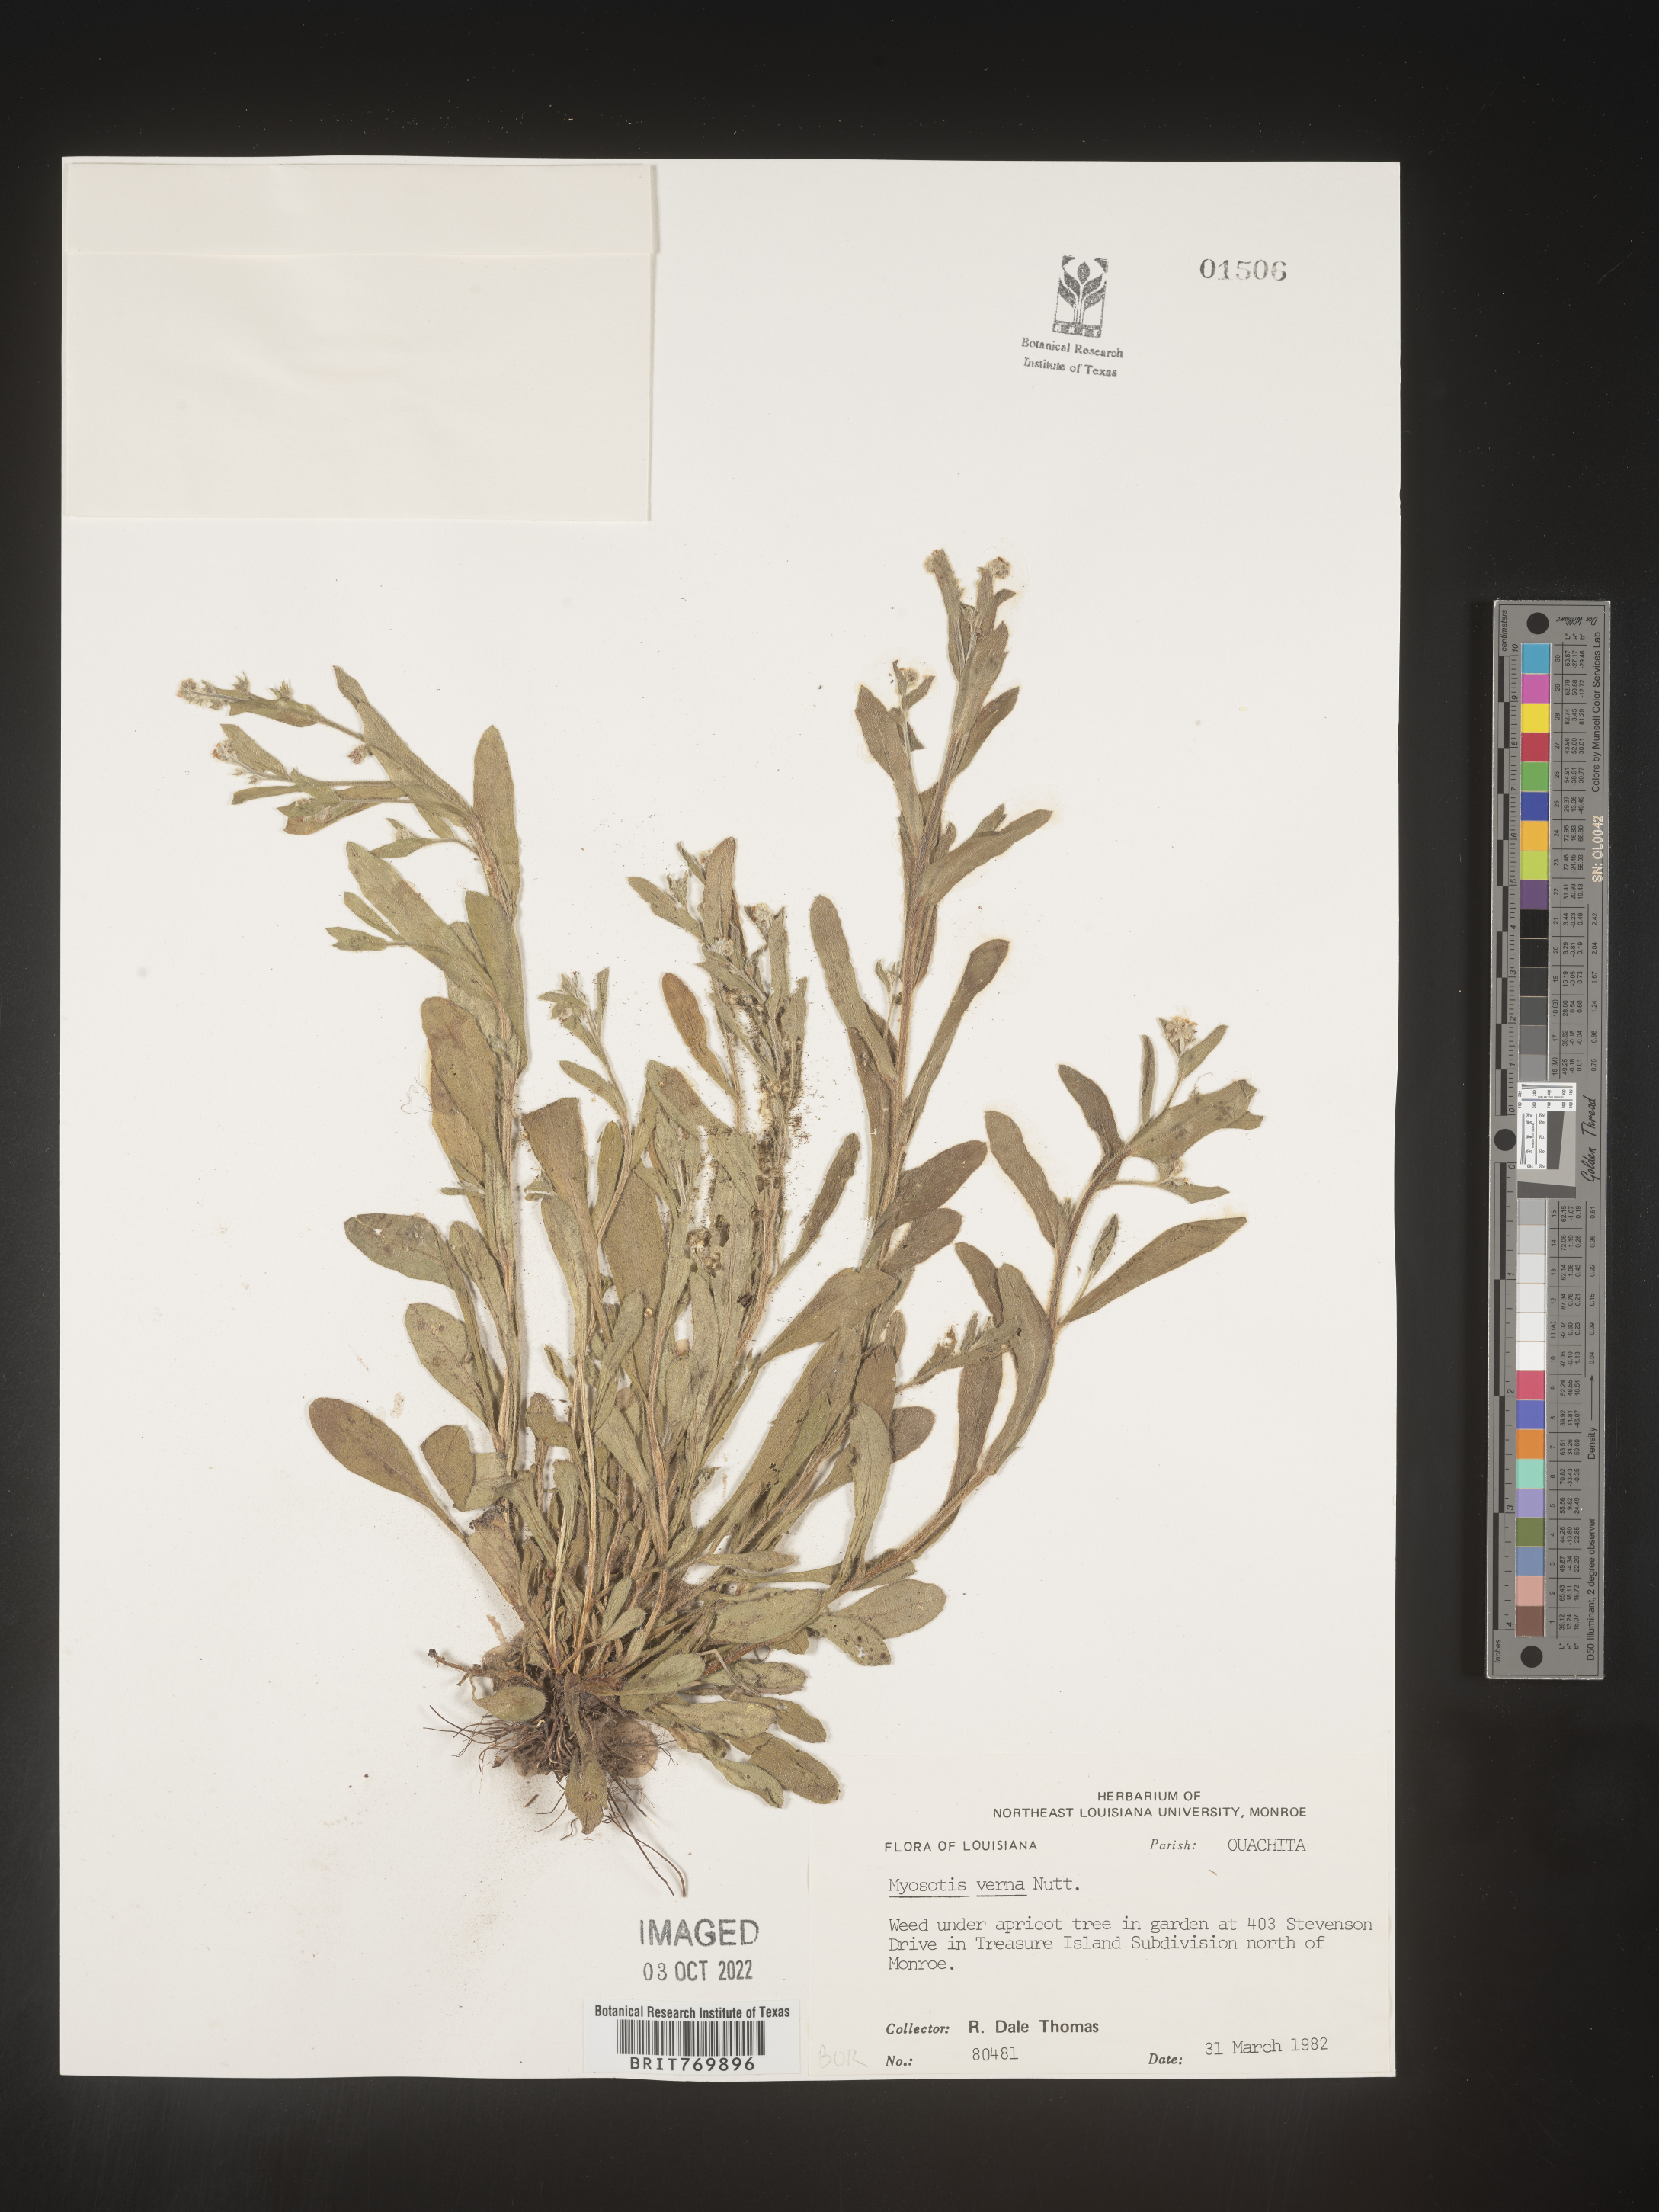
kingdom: Plantae
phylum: Tracheophyta
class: Magnoliopsida
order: Boraginales
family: Boraginaceae
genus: Myosotis
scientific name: Myosotis verna
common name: Early forget-me-not
